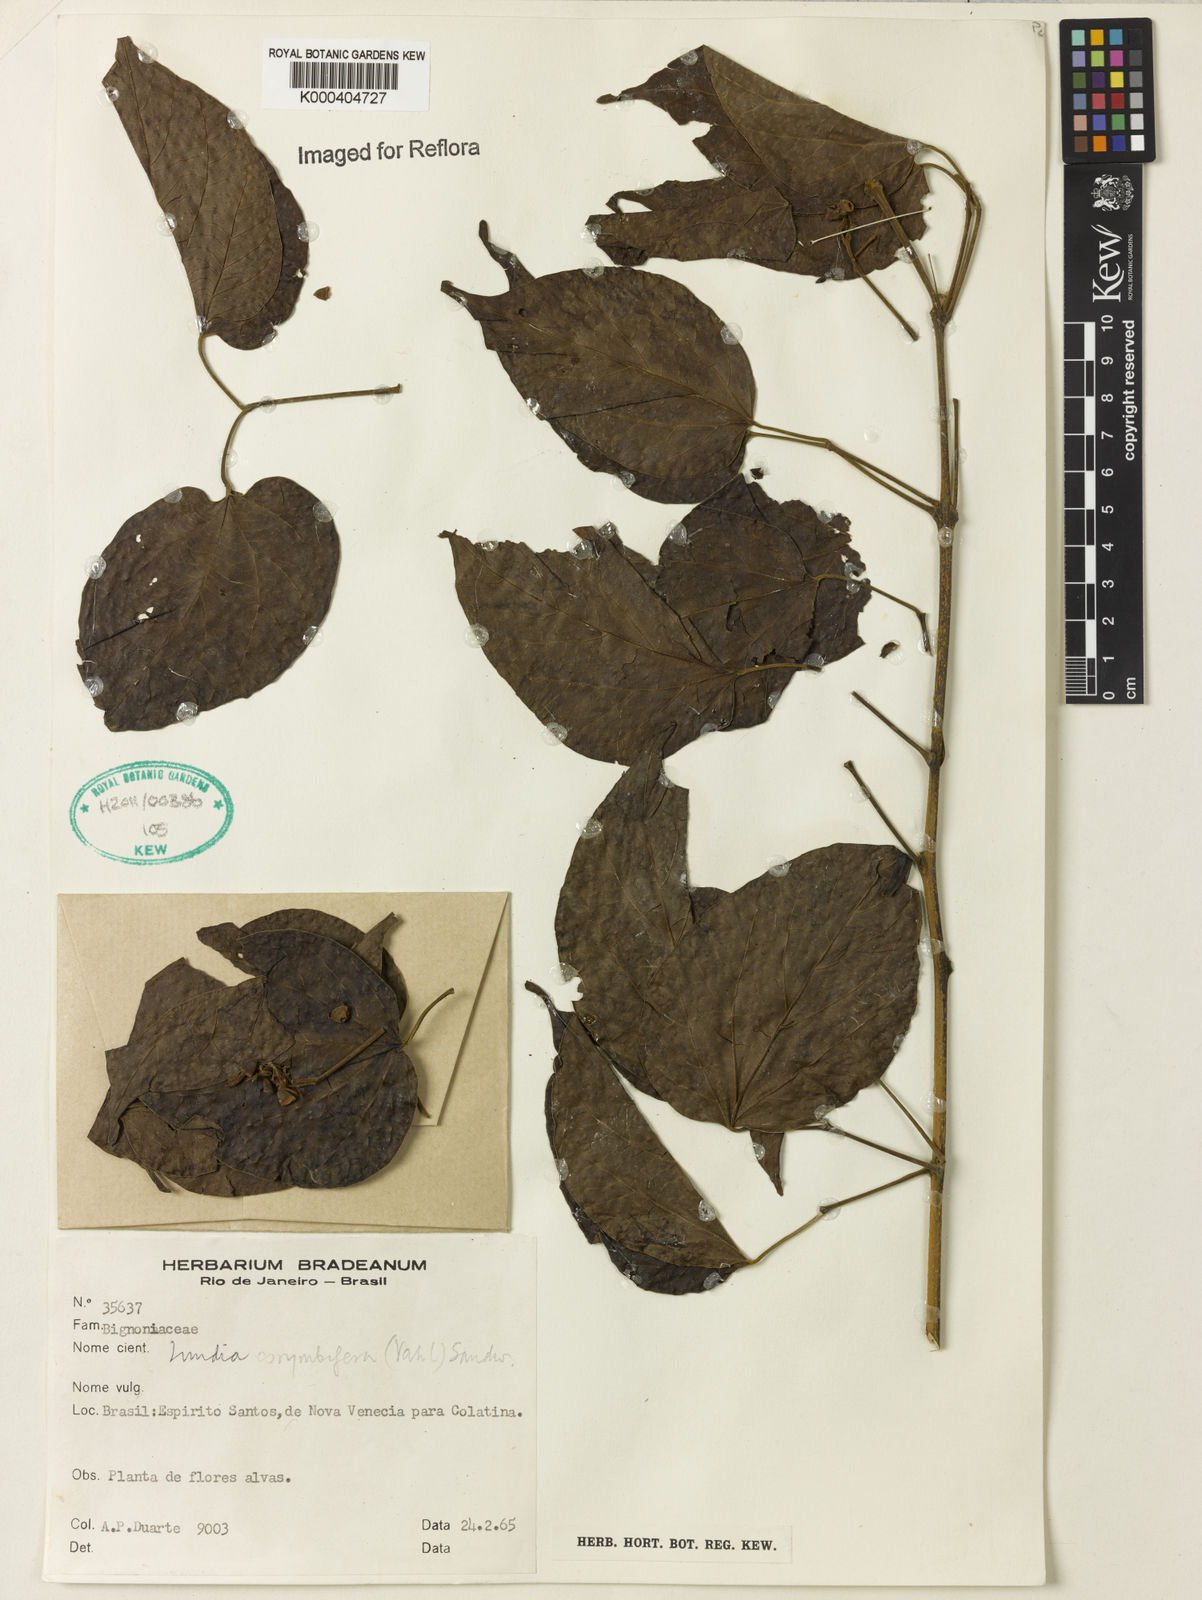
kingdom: Plantae
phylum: Tracheophyta
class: Magnoliopsida
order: Lamiales
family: Bignoniaceae
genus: Lundia
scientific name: Lundia corymbifera
